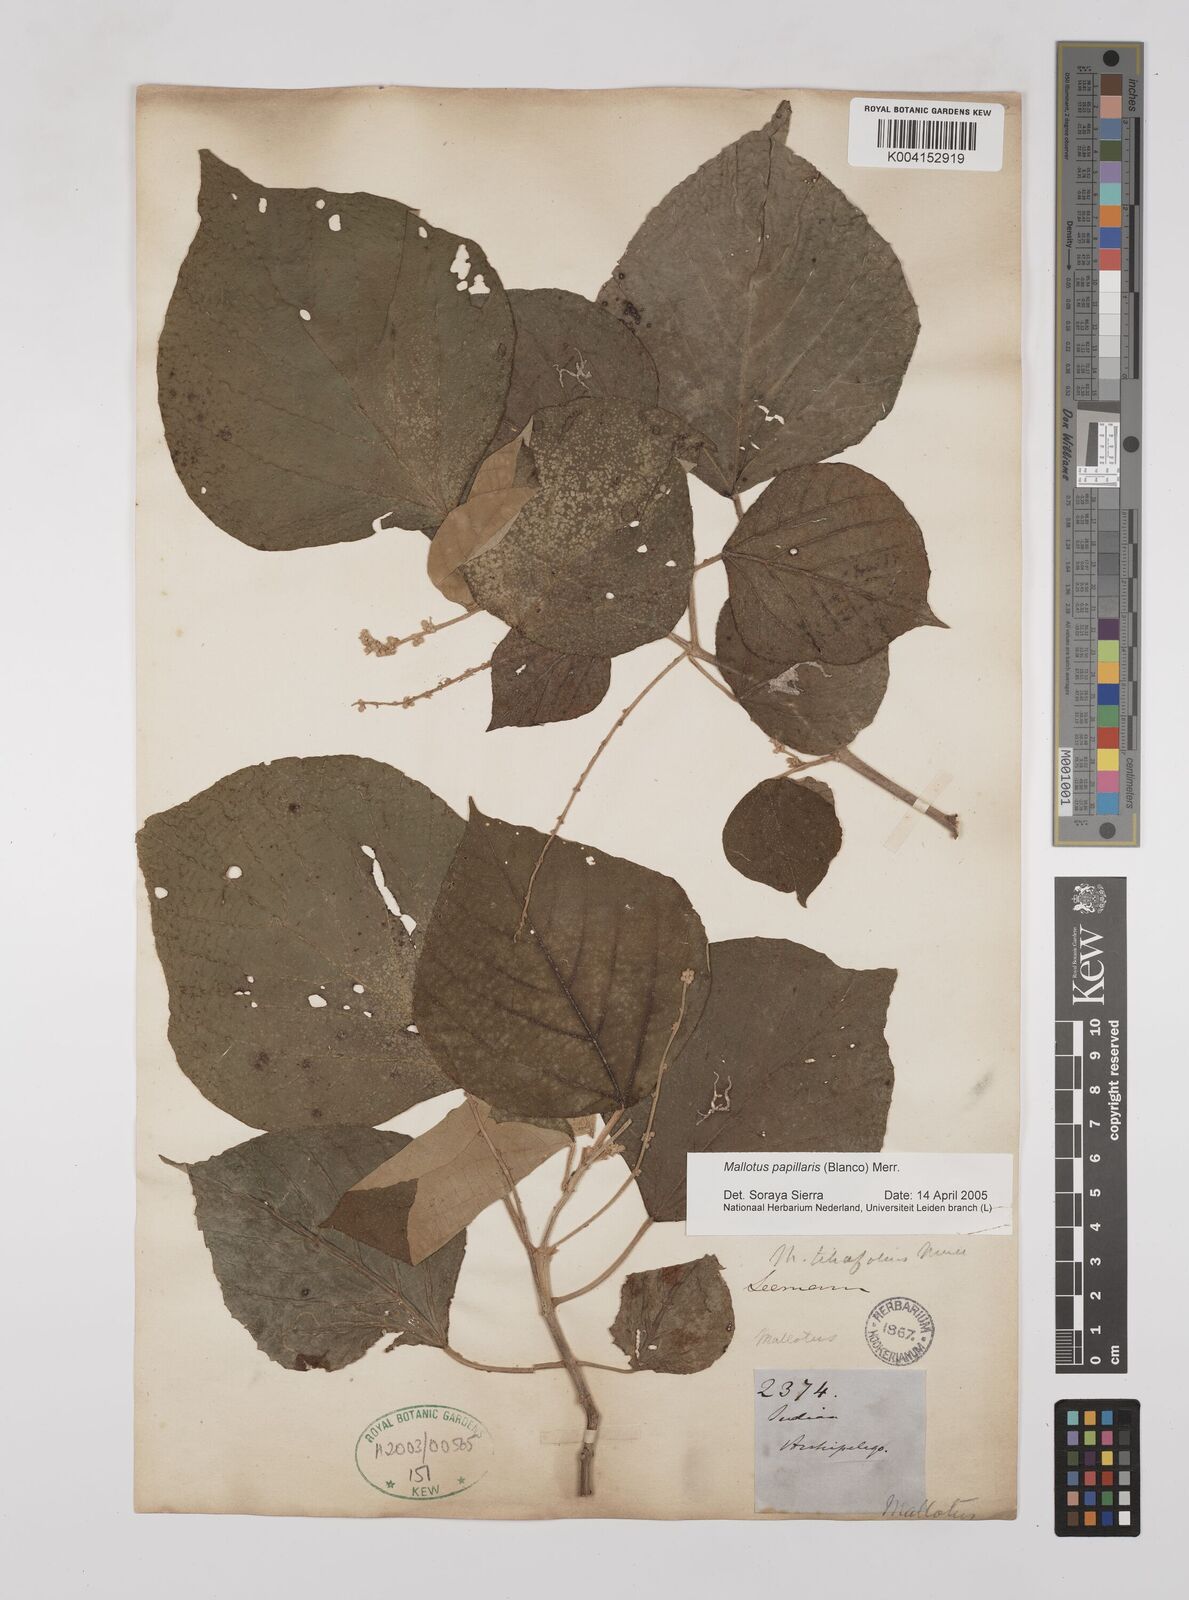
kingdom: Plantae
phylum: Tracheophyta
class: Magnoliopsida
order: Malpighiales
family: Euphorbiaceae
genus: Mallotus
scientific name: Mallotus tiliifolius
